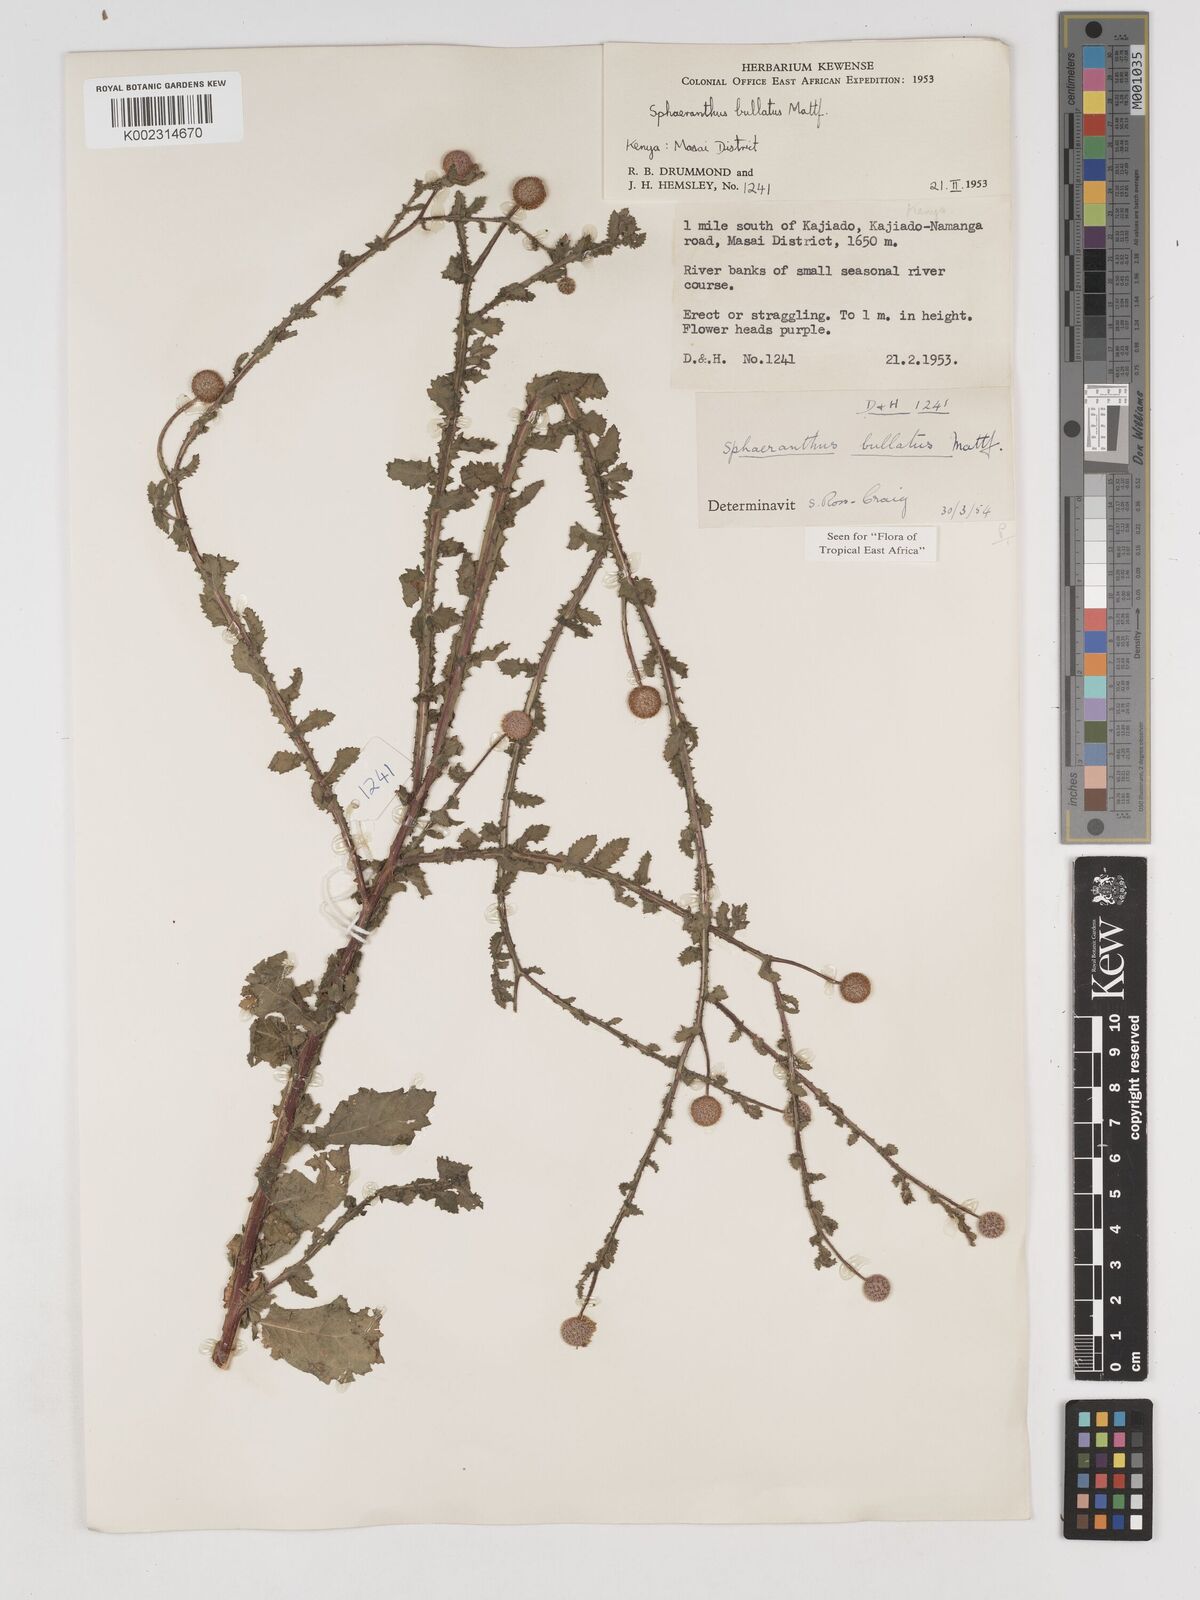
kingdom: Plantae
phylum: Tracheophyta
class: Magnoliopsida
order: Asterales
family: Asteraceae
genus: Sphaeranthus
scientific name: Sphaeranthus bullatus
